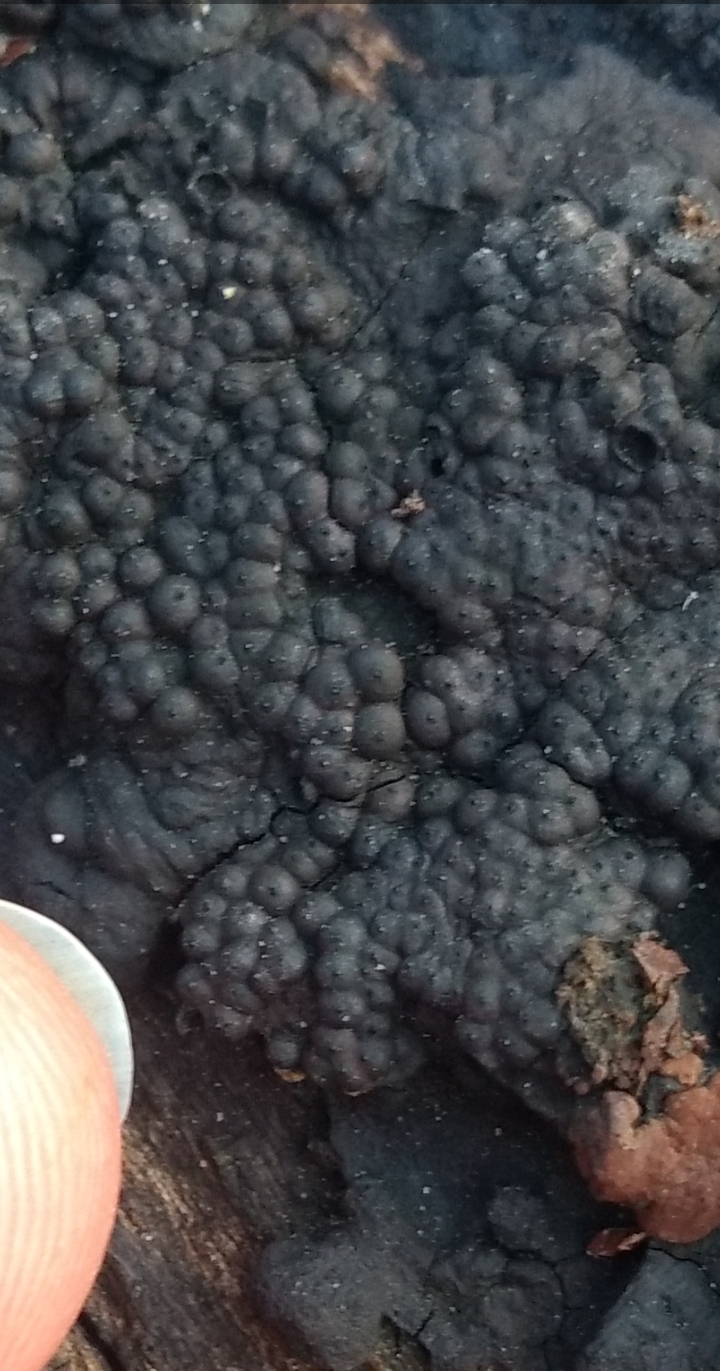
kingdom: Fungi
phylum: Ascomycota
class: Sordariomycetes
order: Xylariales
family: Hypoxylaceae
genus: Jackrogersella
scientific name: Jackrogersella cohaerens
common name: sammenflydende kulbær
